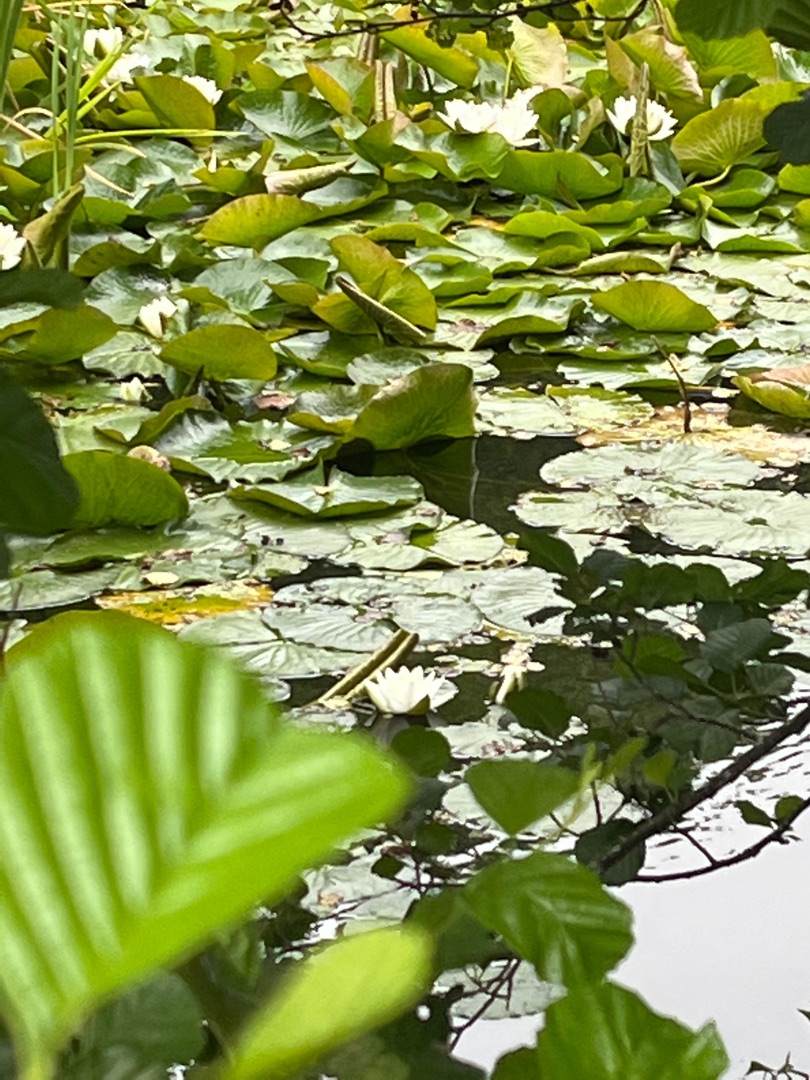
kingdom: Plantae
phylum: Tracheophyta
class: Magnoliopsida
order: Nymphaeales
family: Nymphaeaceae
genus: Nymphaea
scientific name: Nymphaea alba
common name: Hvid åkande
